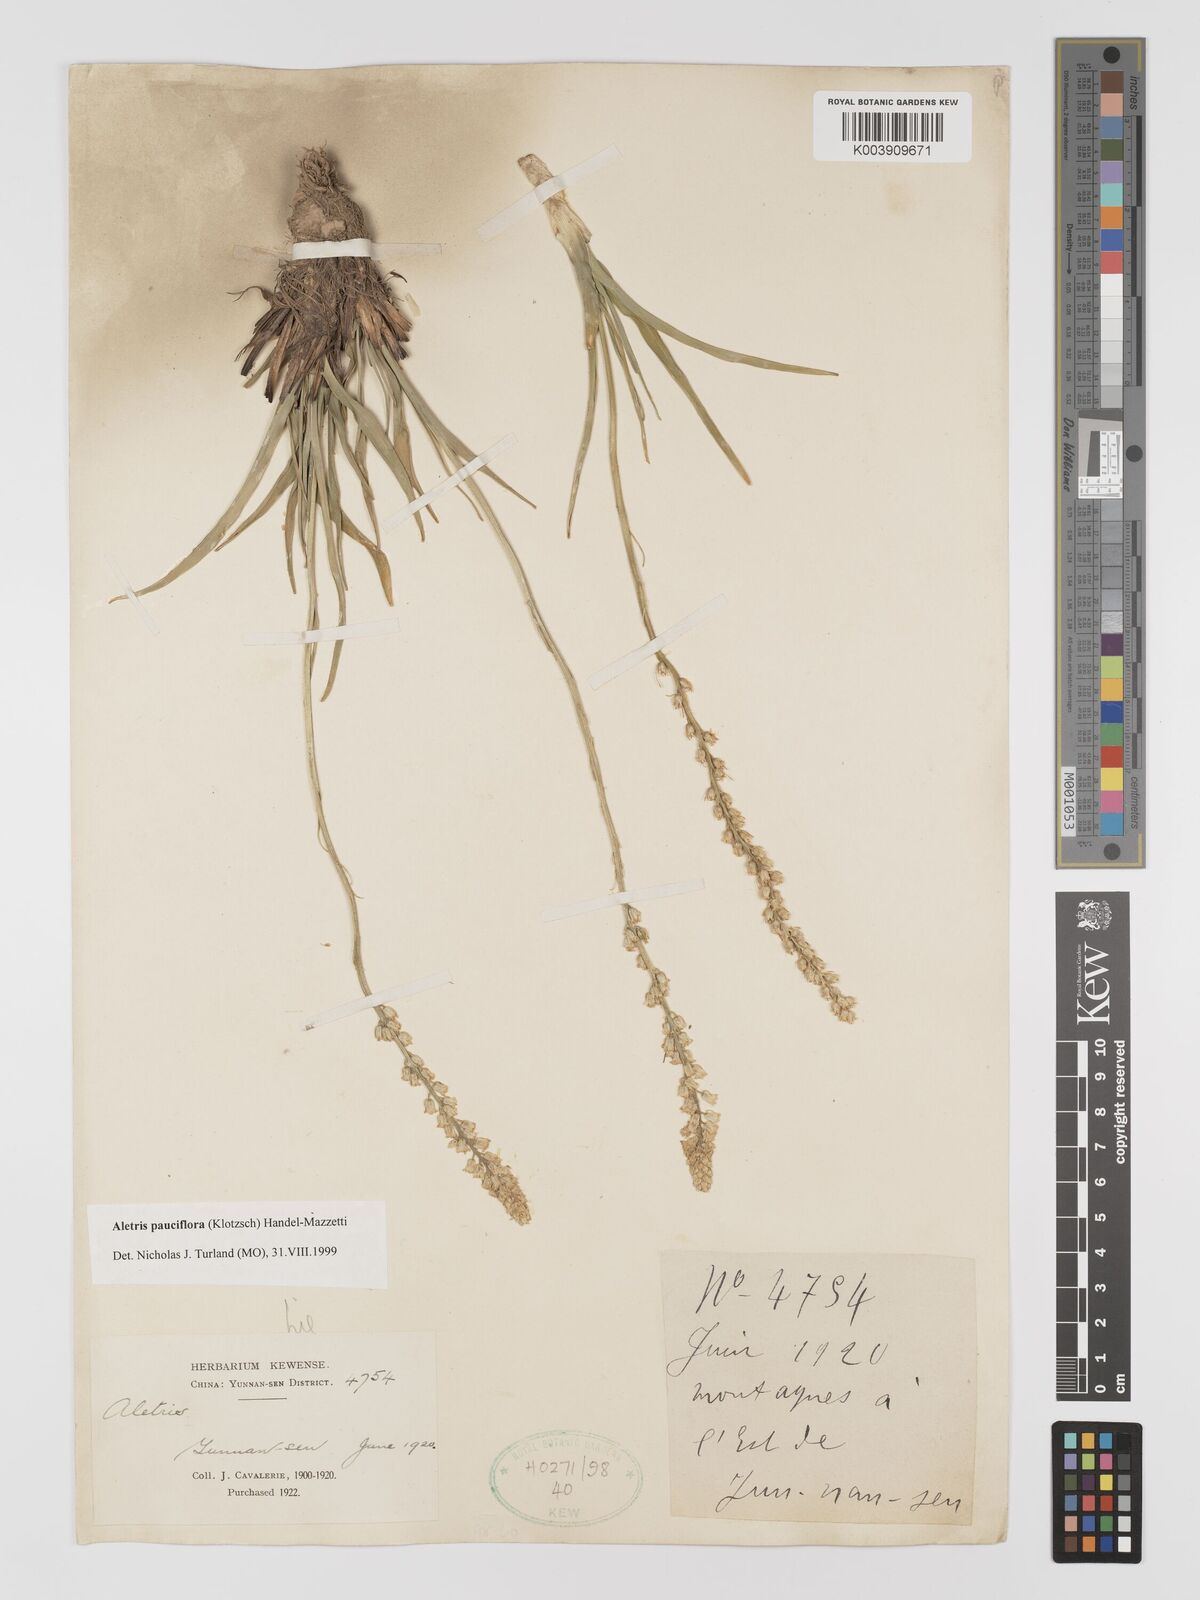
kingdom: Plantae
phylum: Tracheophyta
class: Liliopsida
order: Dioscoreales
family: Nartheciaceae
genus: Aletris
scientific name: Aletris pauciflora
